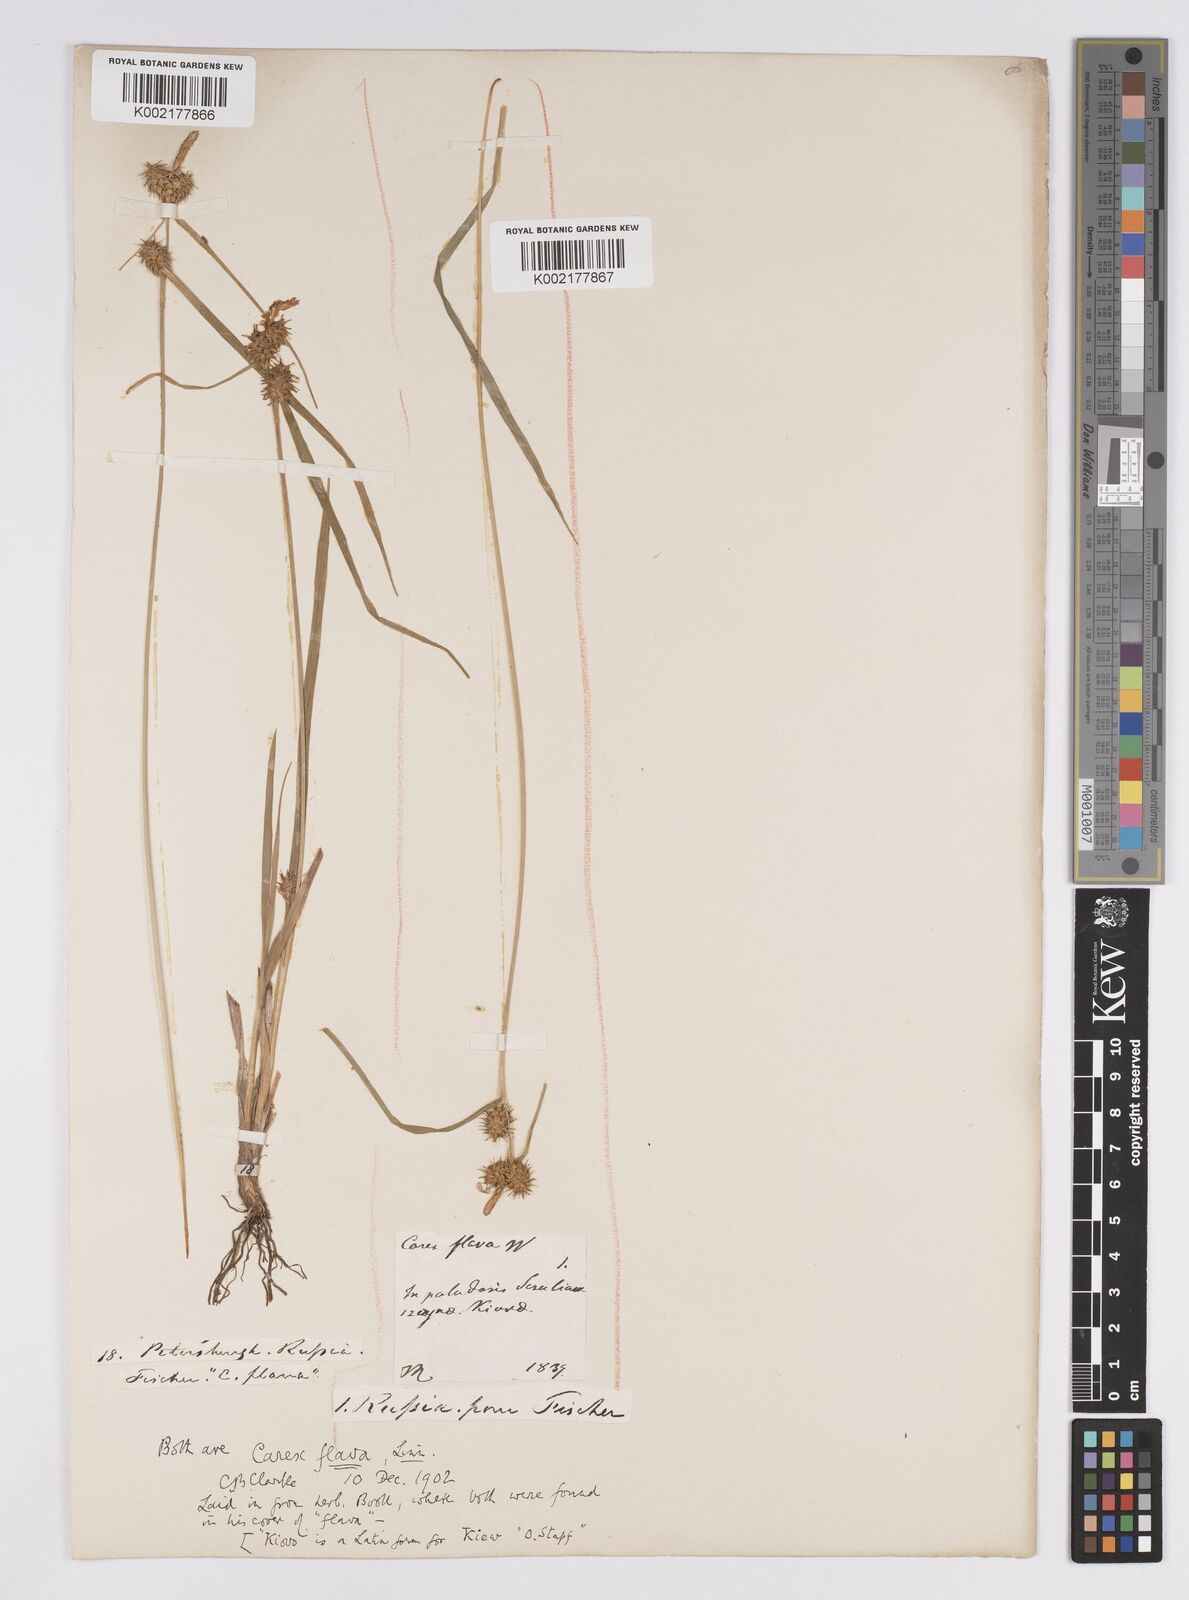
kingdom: Plantae
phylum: Tracheophyta
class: Liliopsida
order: Poales
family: Cyperaceae
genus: Carex
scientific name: Carex flava
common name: Large yellow-sedge
